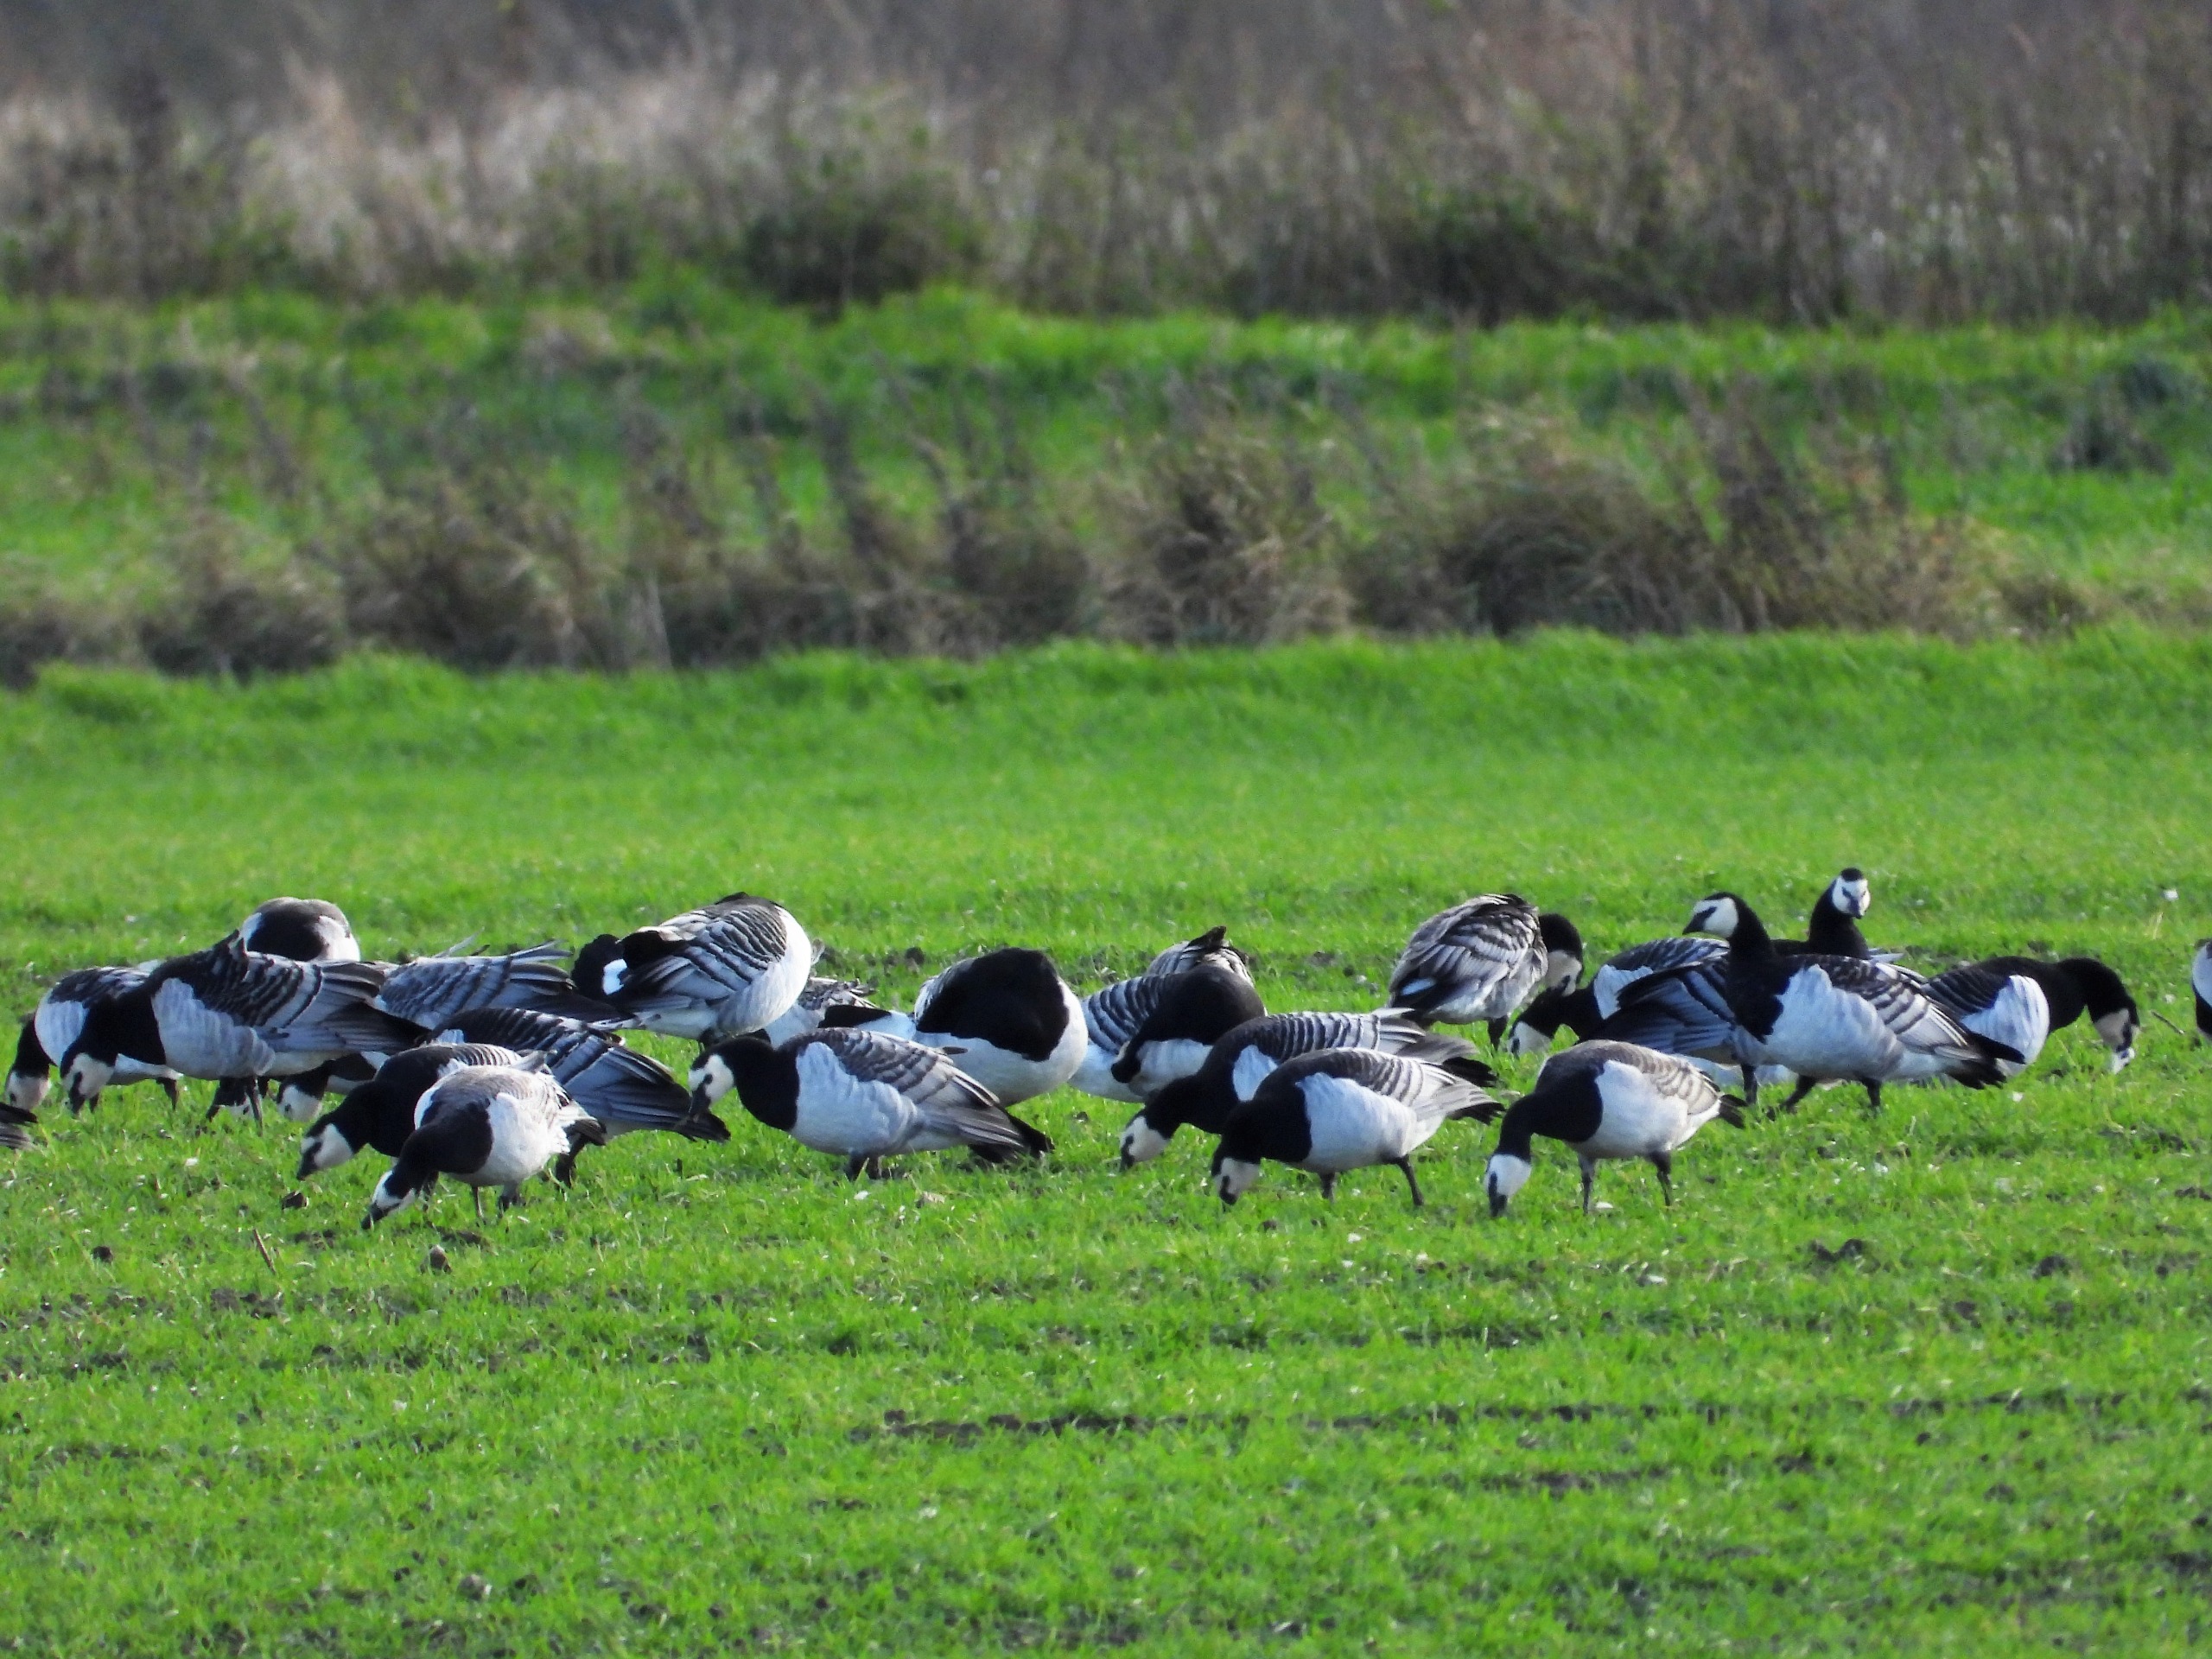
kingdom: Animalia
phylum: Chordata
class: Aves
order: Anseriformes
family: Anatidae
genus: Branta
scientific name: Branta leucopsis
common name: Bramgås
